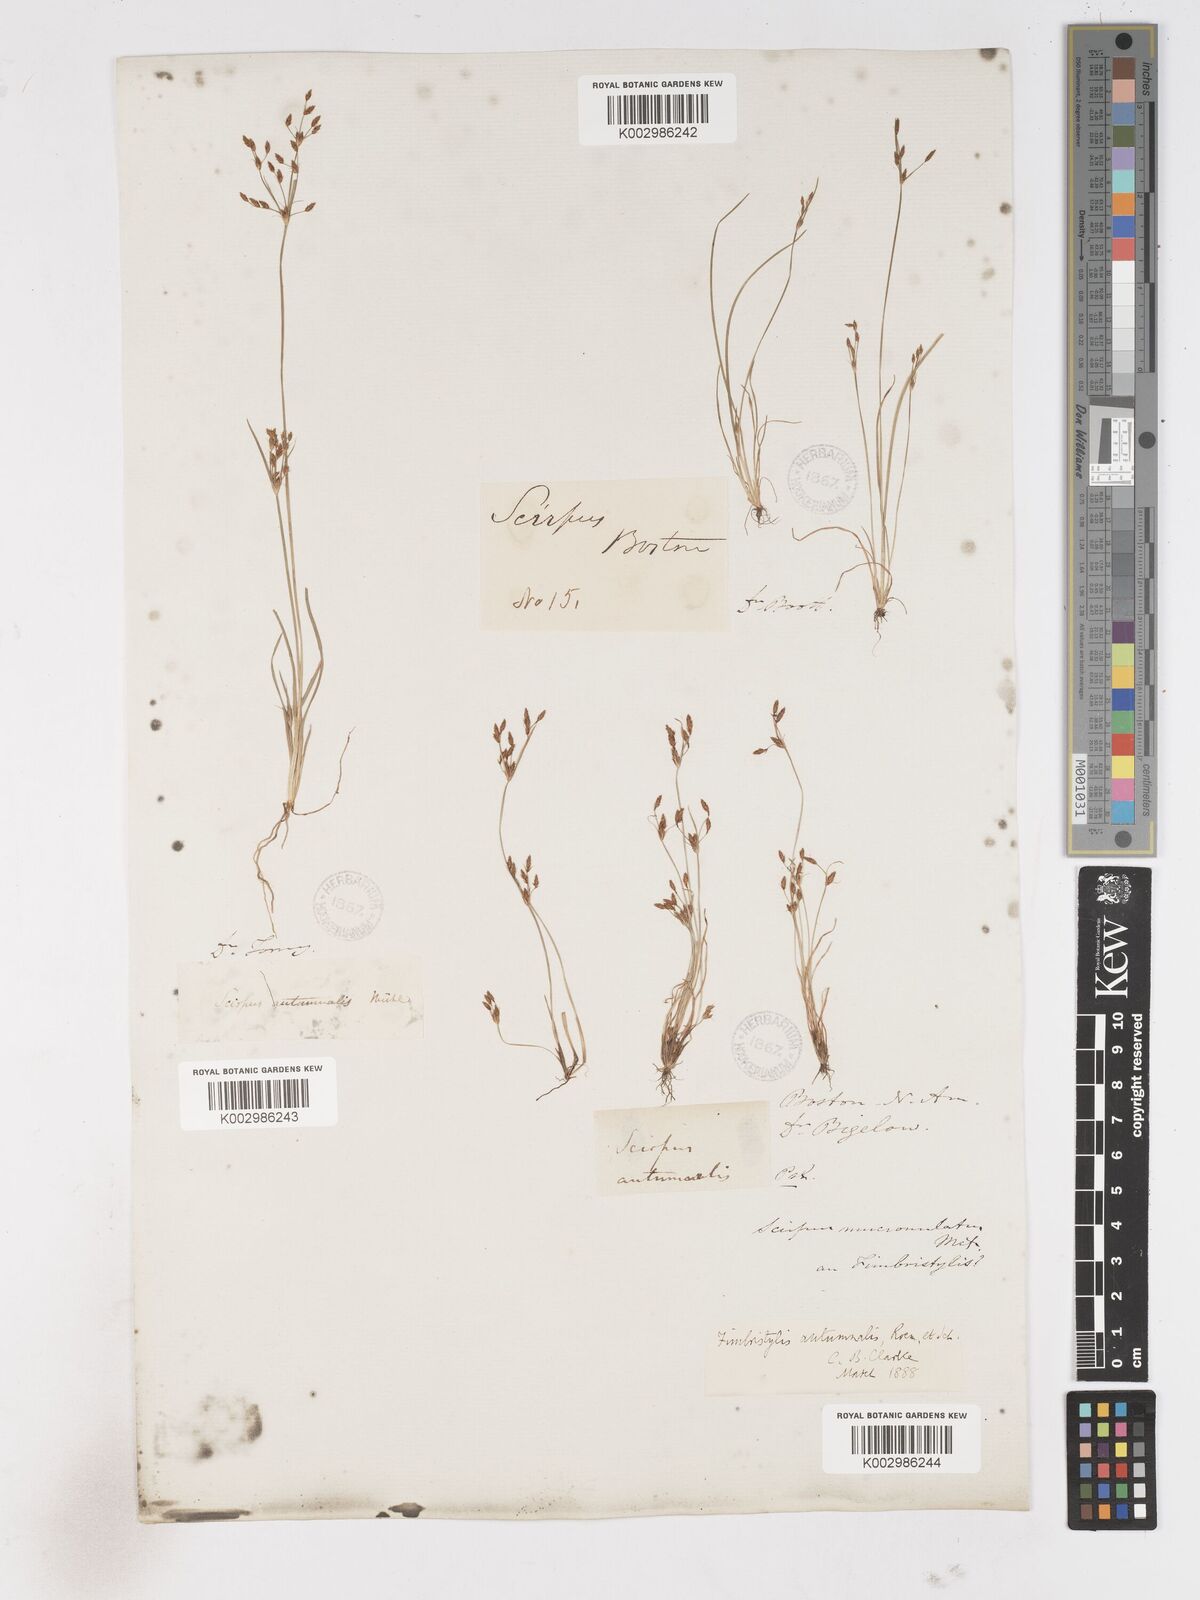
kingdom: Plantae
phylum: Tracheophyta
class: Liliopsida
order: Poales
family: Cyperaceae
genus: Fimbristylis
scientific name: Fimbristylis autumnalis
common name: Slender fimbristylis
